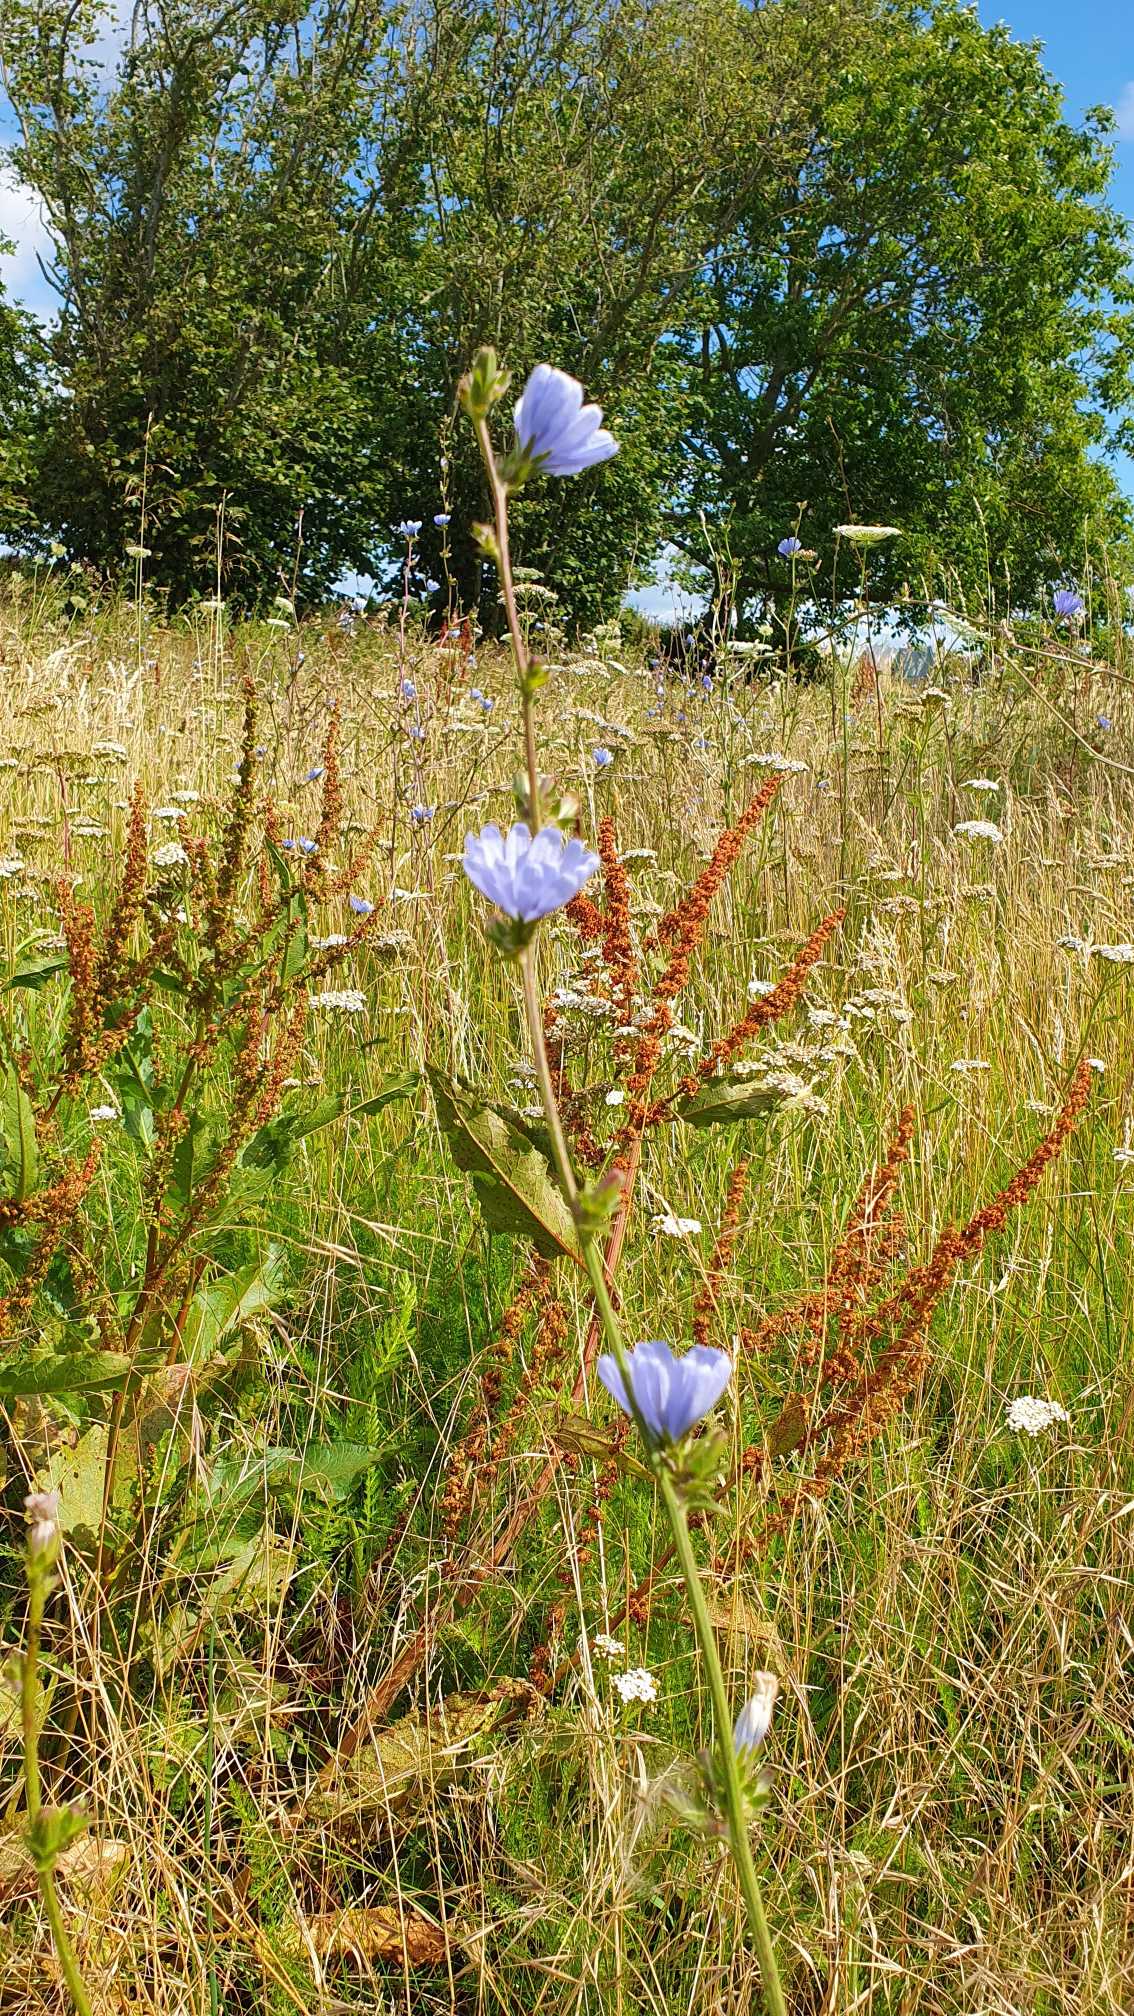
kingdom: Plantae
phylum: Tracheophyta
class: Magnoliopsida
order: Asterales
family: Asteraceae
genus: Cichorium
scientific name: Cichorium intybus
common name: Cikorie
